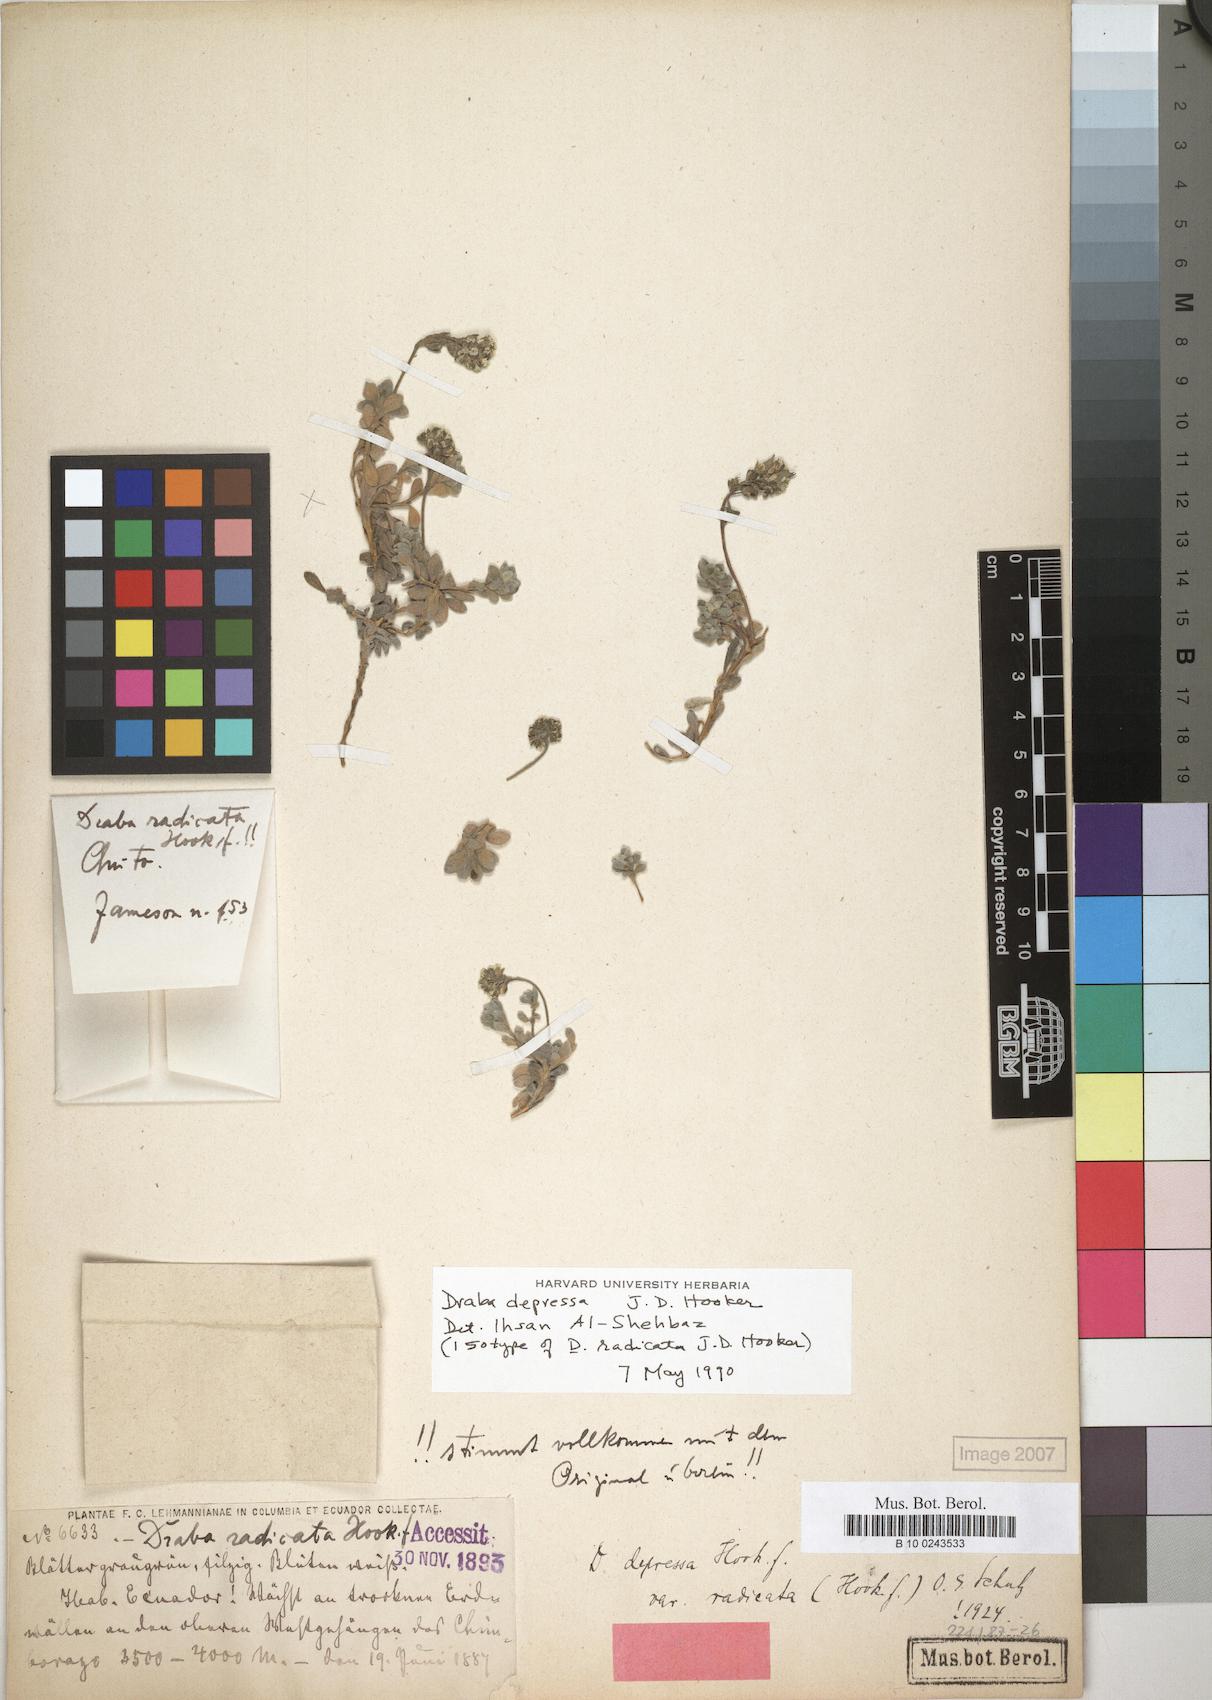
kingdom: Plantae
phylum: Tracheophyta
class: Magnoliopsida
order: Brassicales
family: Brassicaceae
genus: Draba
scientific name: Draba depressa
